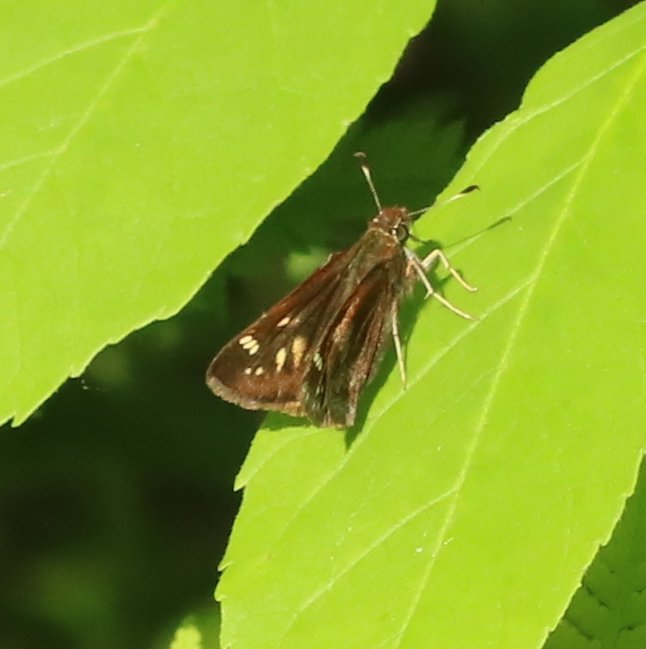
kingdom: Animalia
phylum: Arthropoda
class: Insecta
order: Lepidoptera
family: Hesperiidae
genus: Lon
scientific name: Lon hobomok
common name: Hobomok Skipper
